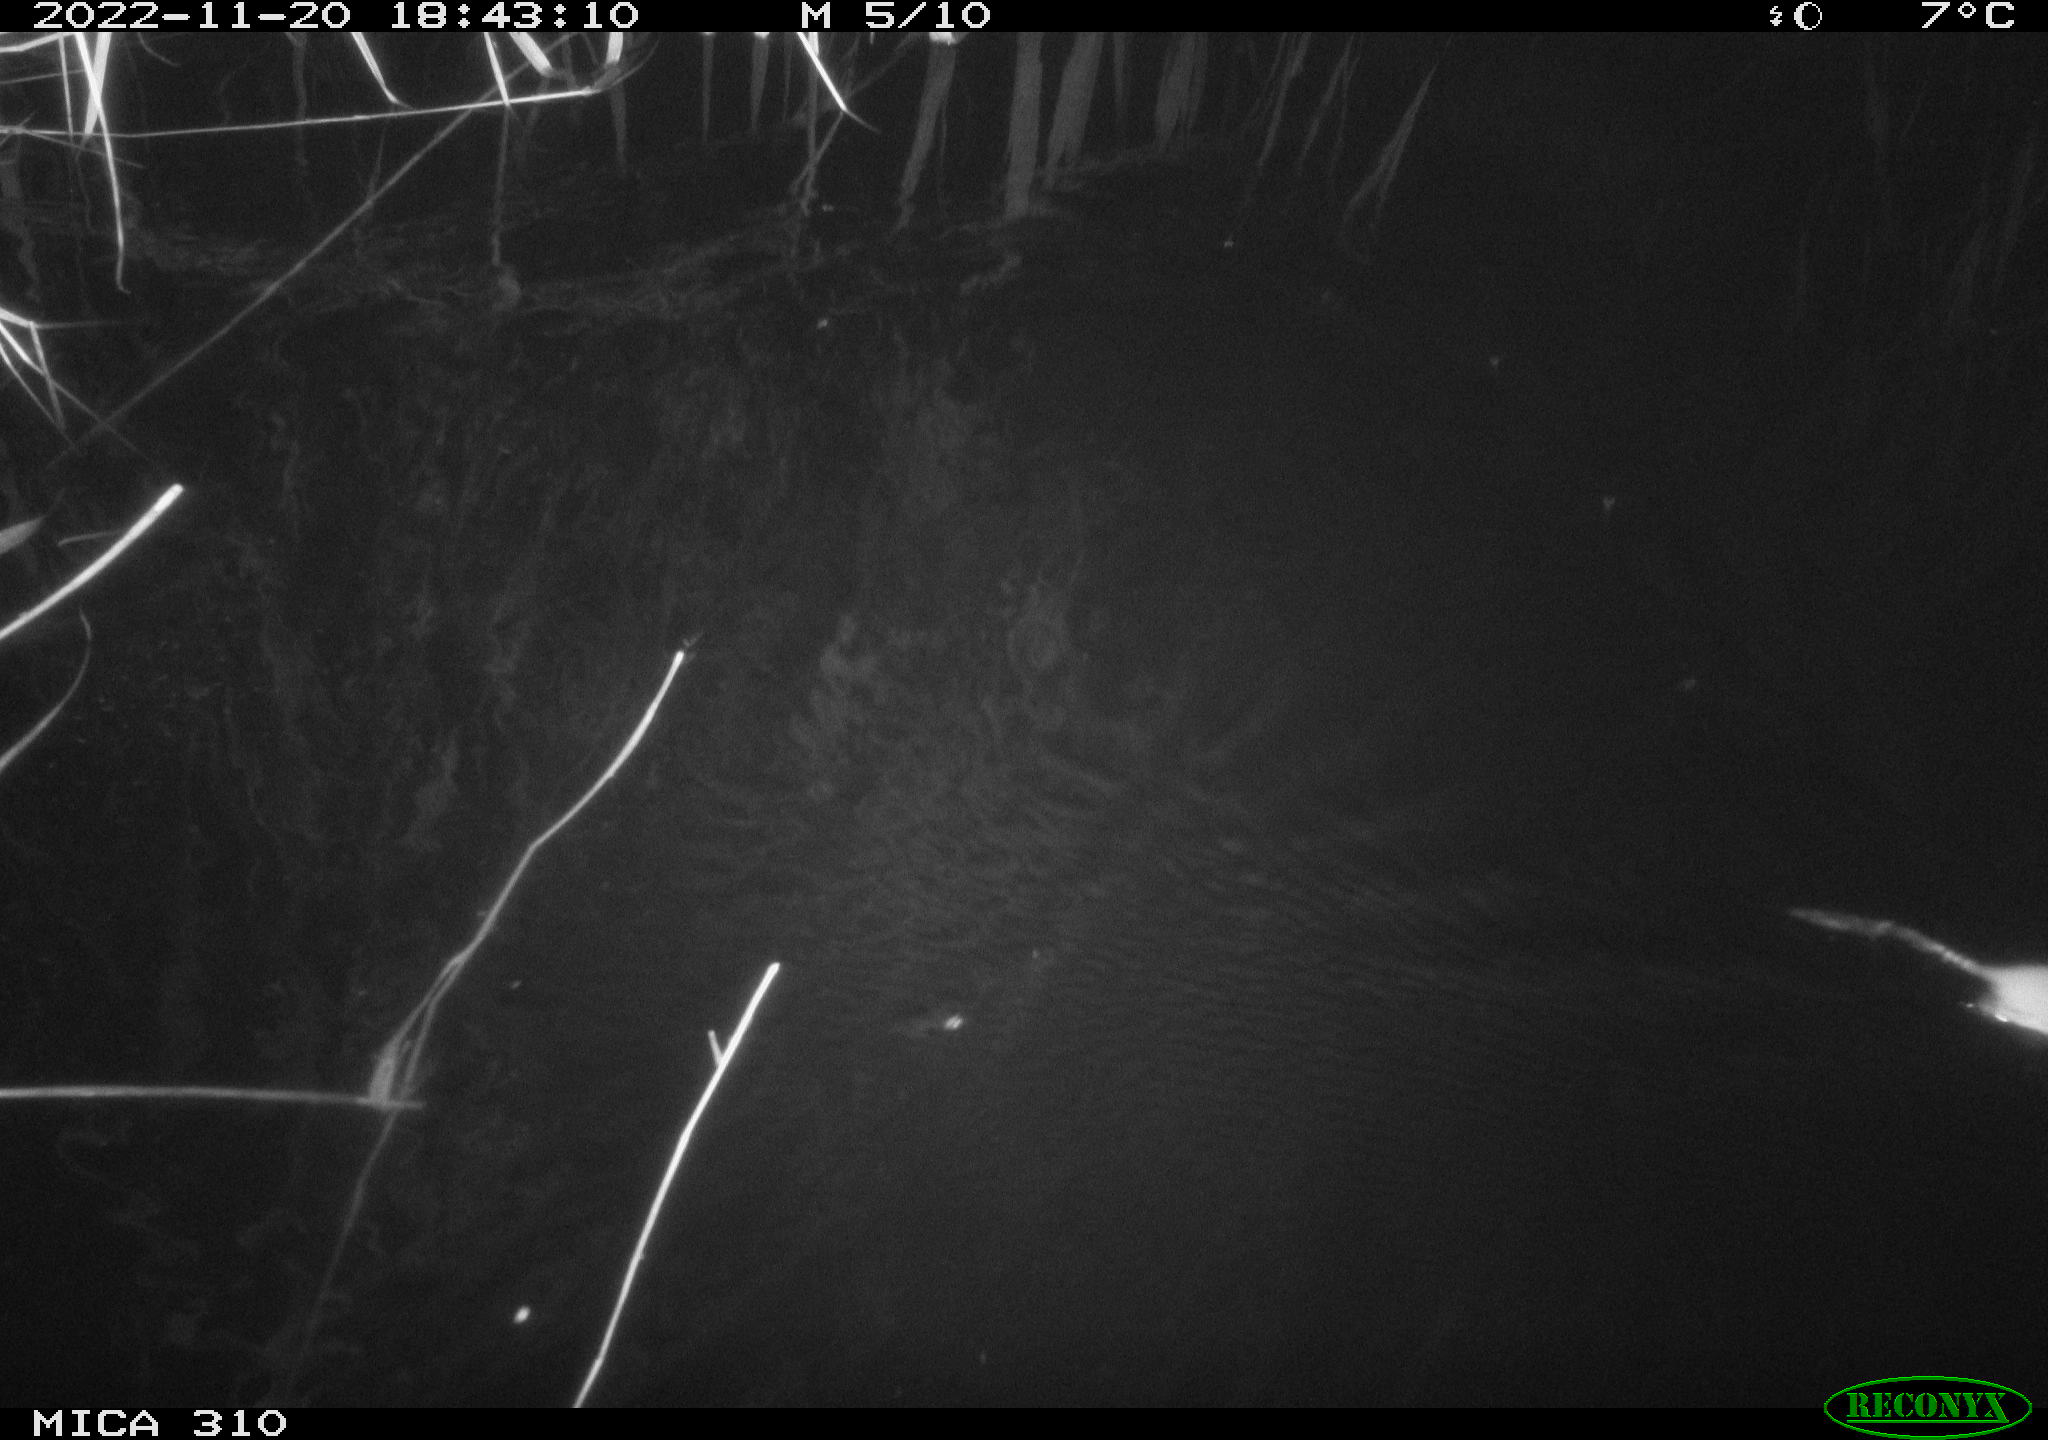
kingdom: Animalia
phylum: Chordata
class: Mammalia
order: Rodentia
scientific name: Rodentia
